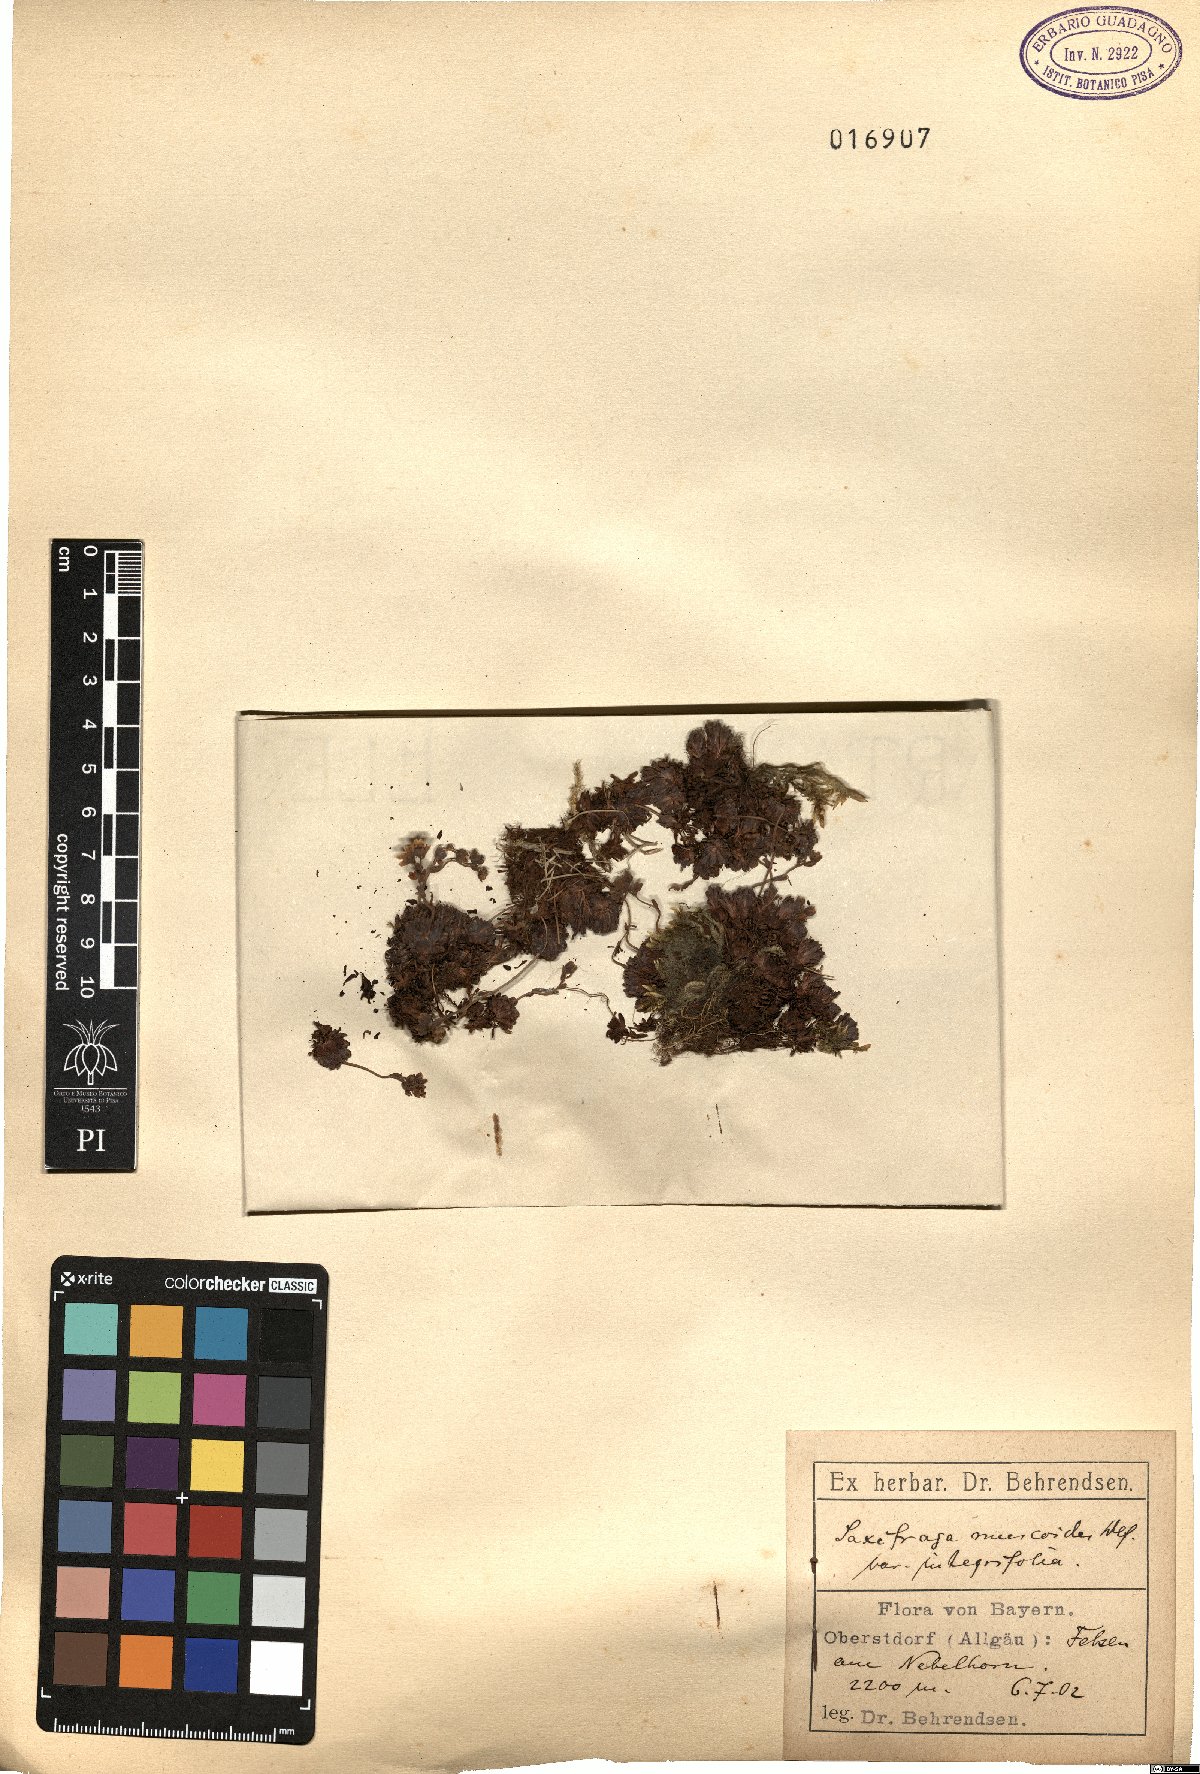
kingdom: Plantae
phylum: Tracheophyta
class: Magnoliopsida
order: Saxifragales
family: Saxifragaceae
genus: Saxifraga
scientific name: Saxifraga moschata
